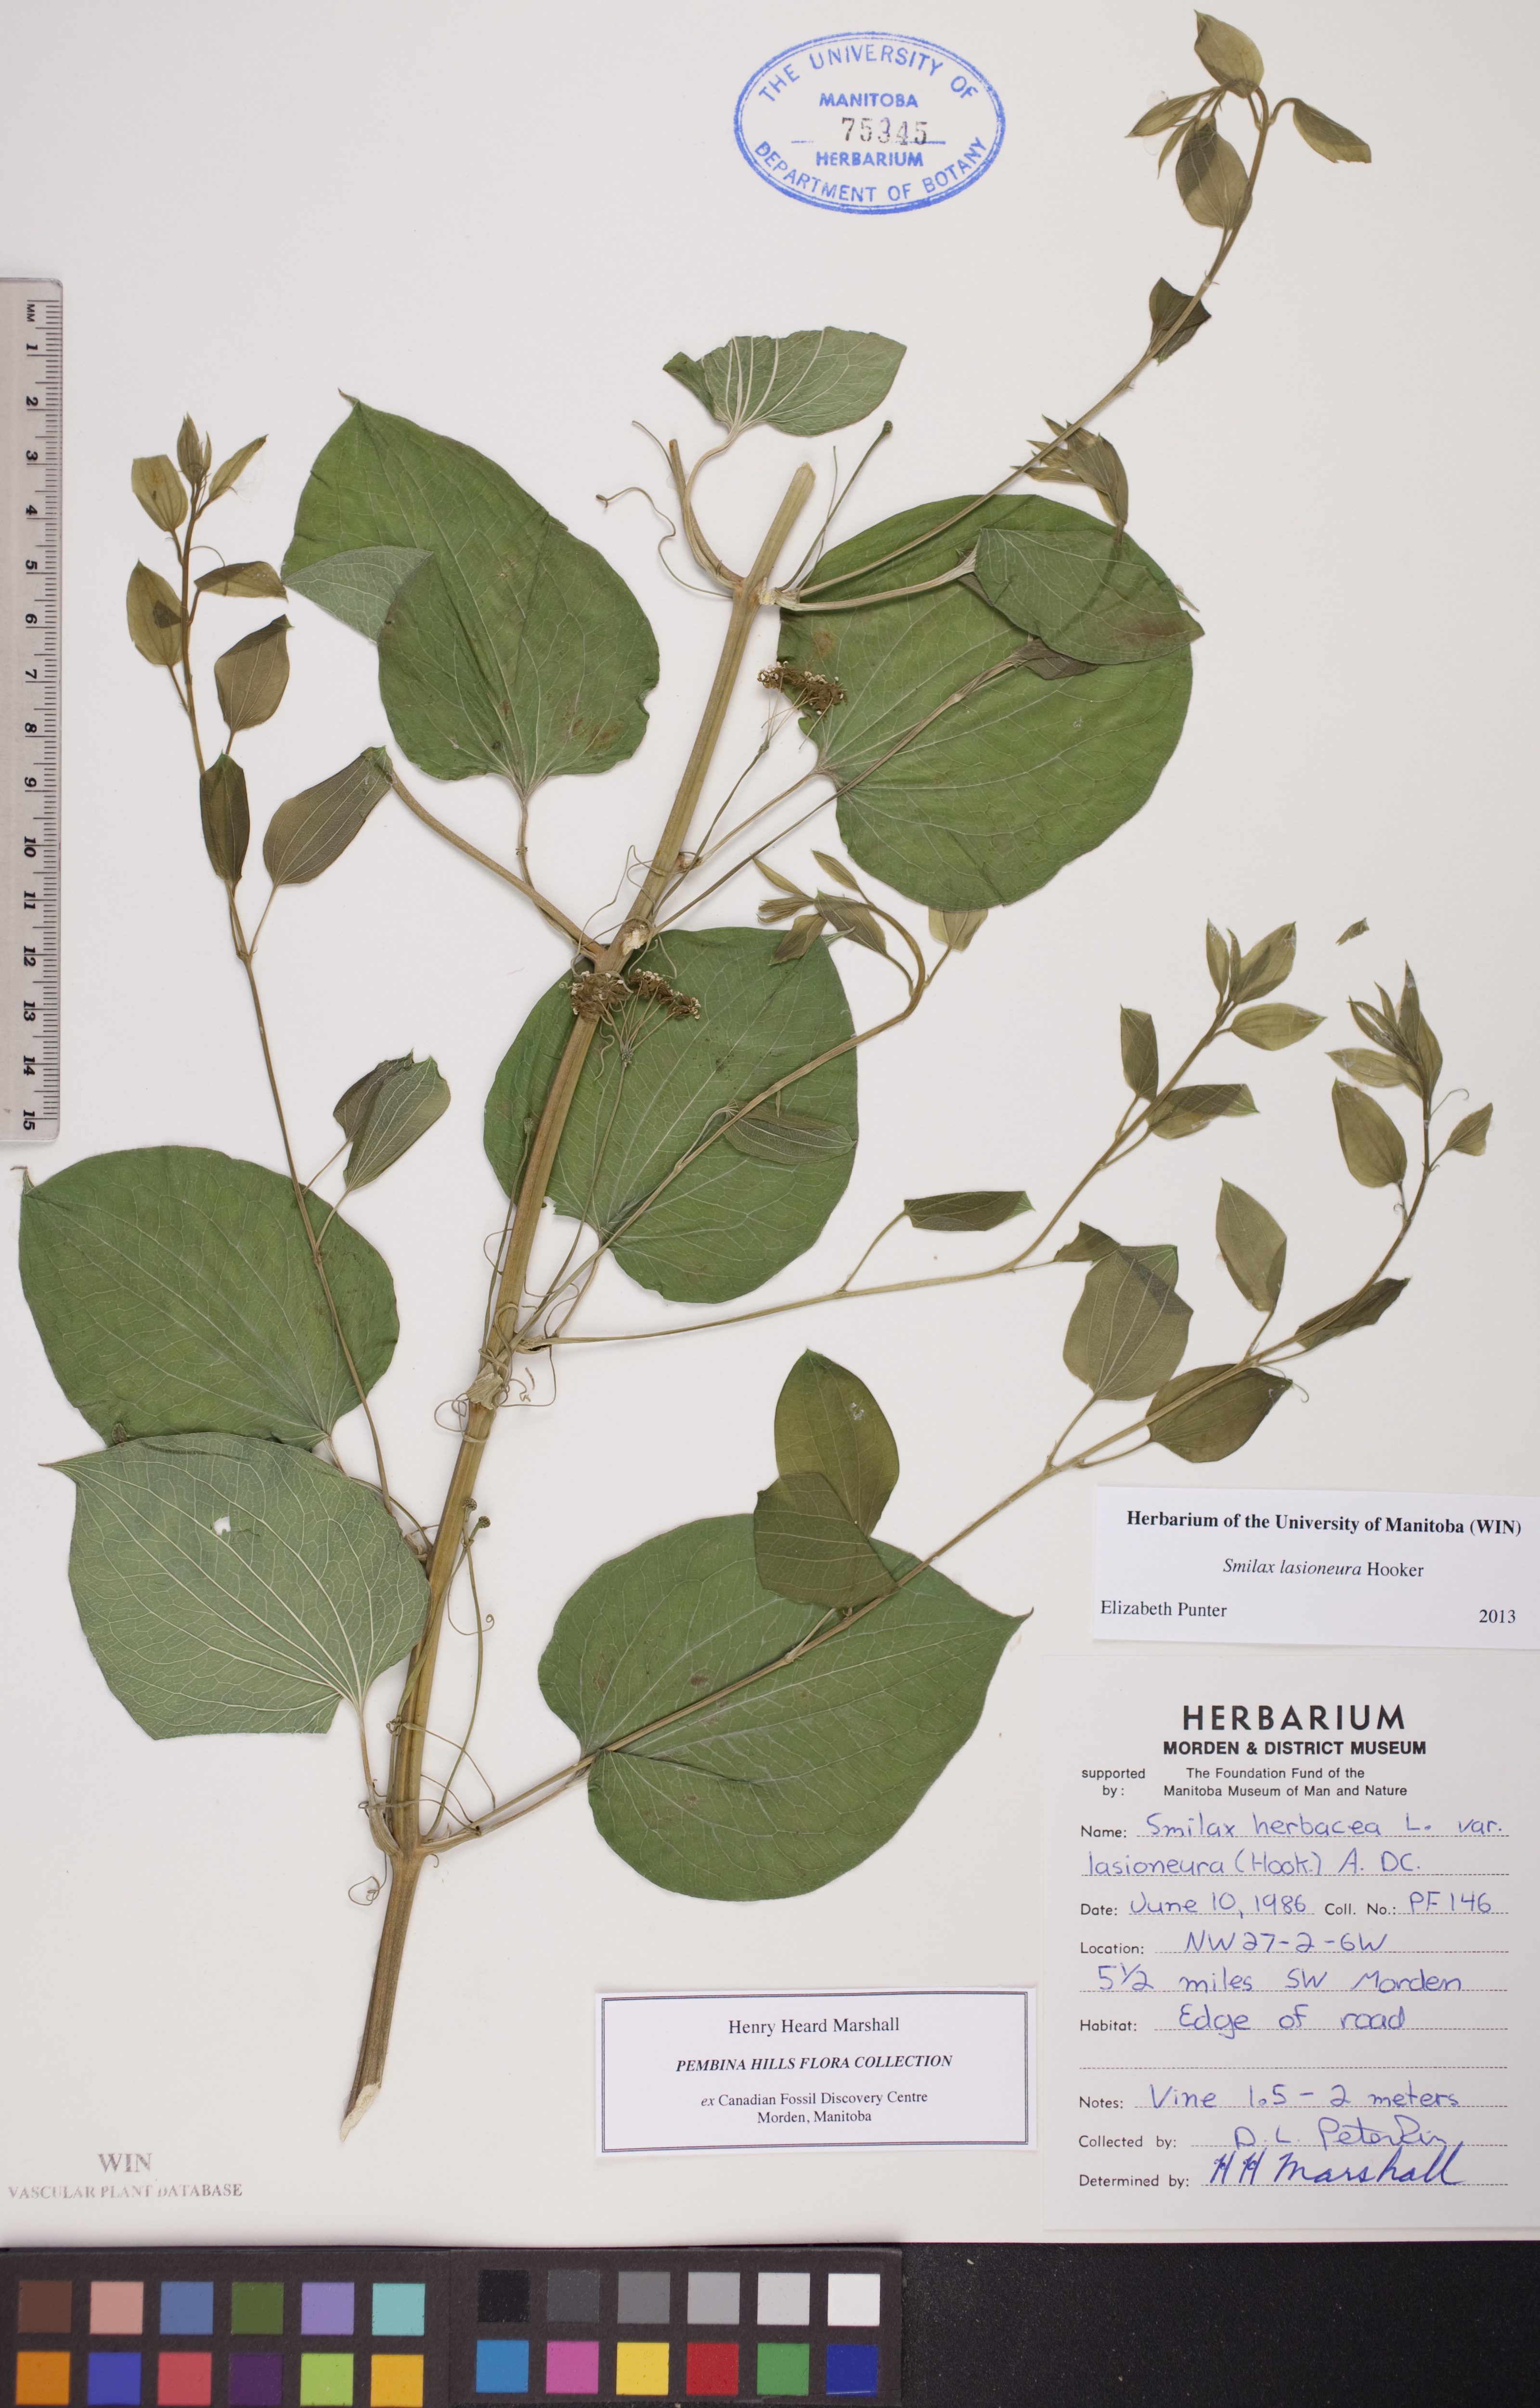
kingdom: Plantae
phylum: Tracheophyta
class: Liliopsida
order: Liliales
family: Smilacaceae
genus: Smilax
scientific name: Smilax lasioneura
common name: Blue ridge carrionflower
